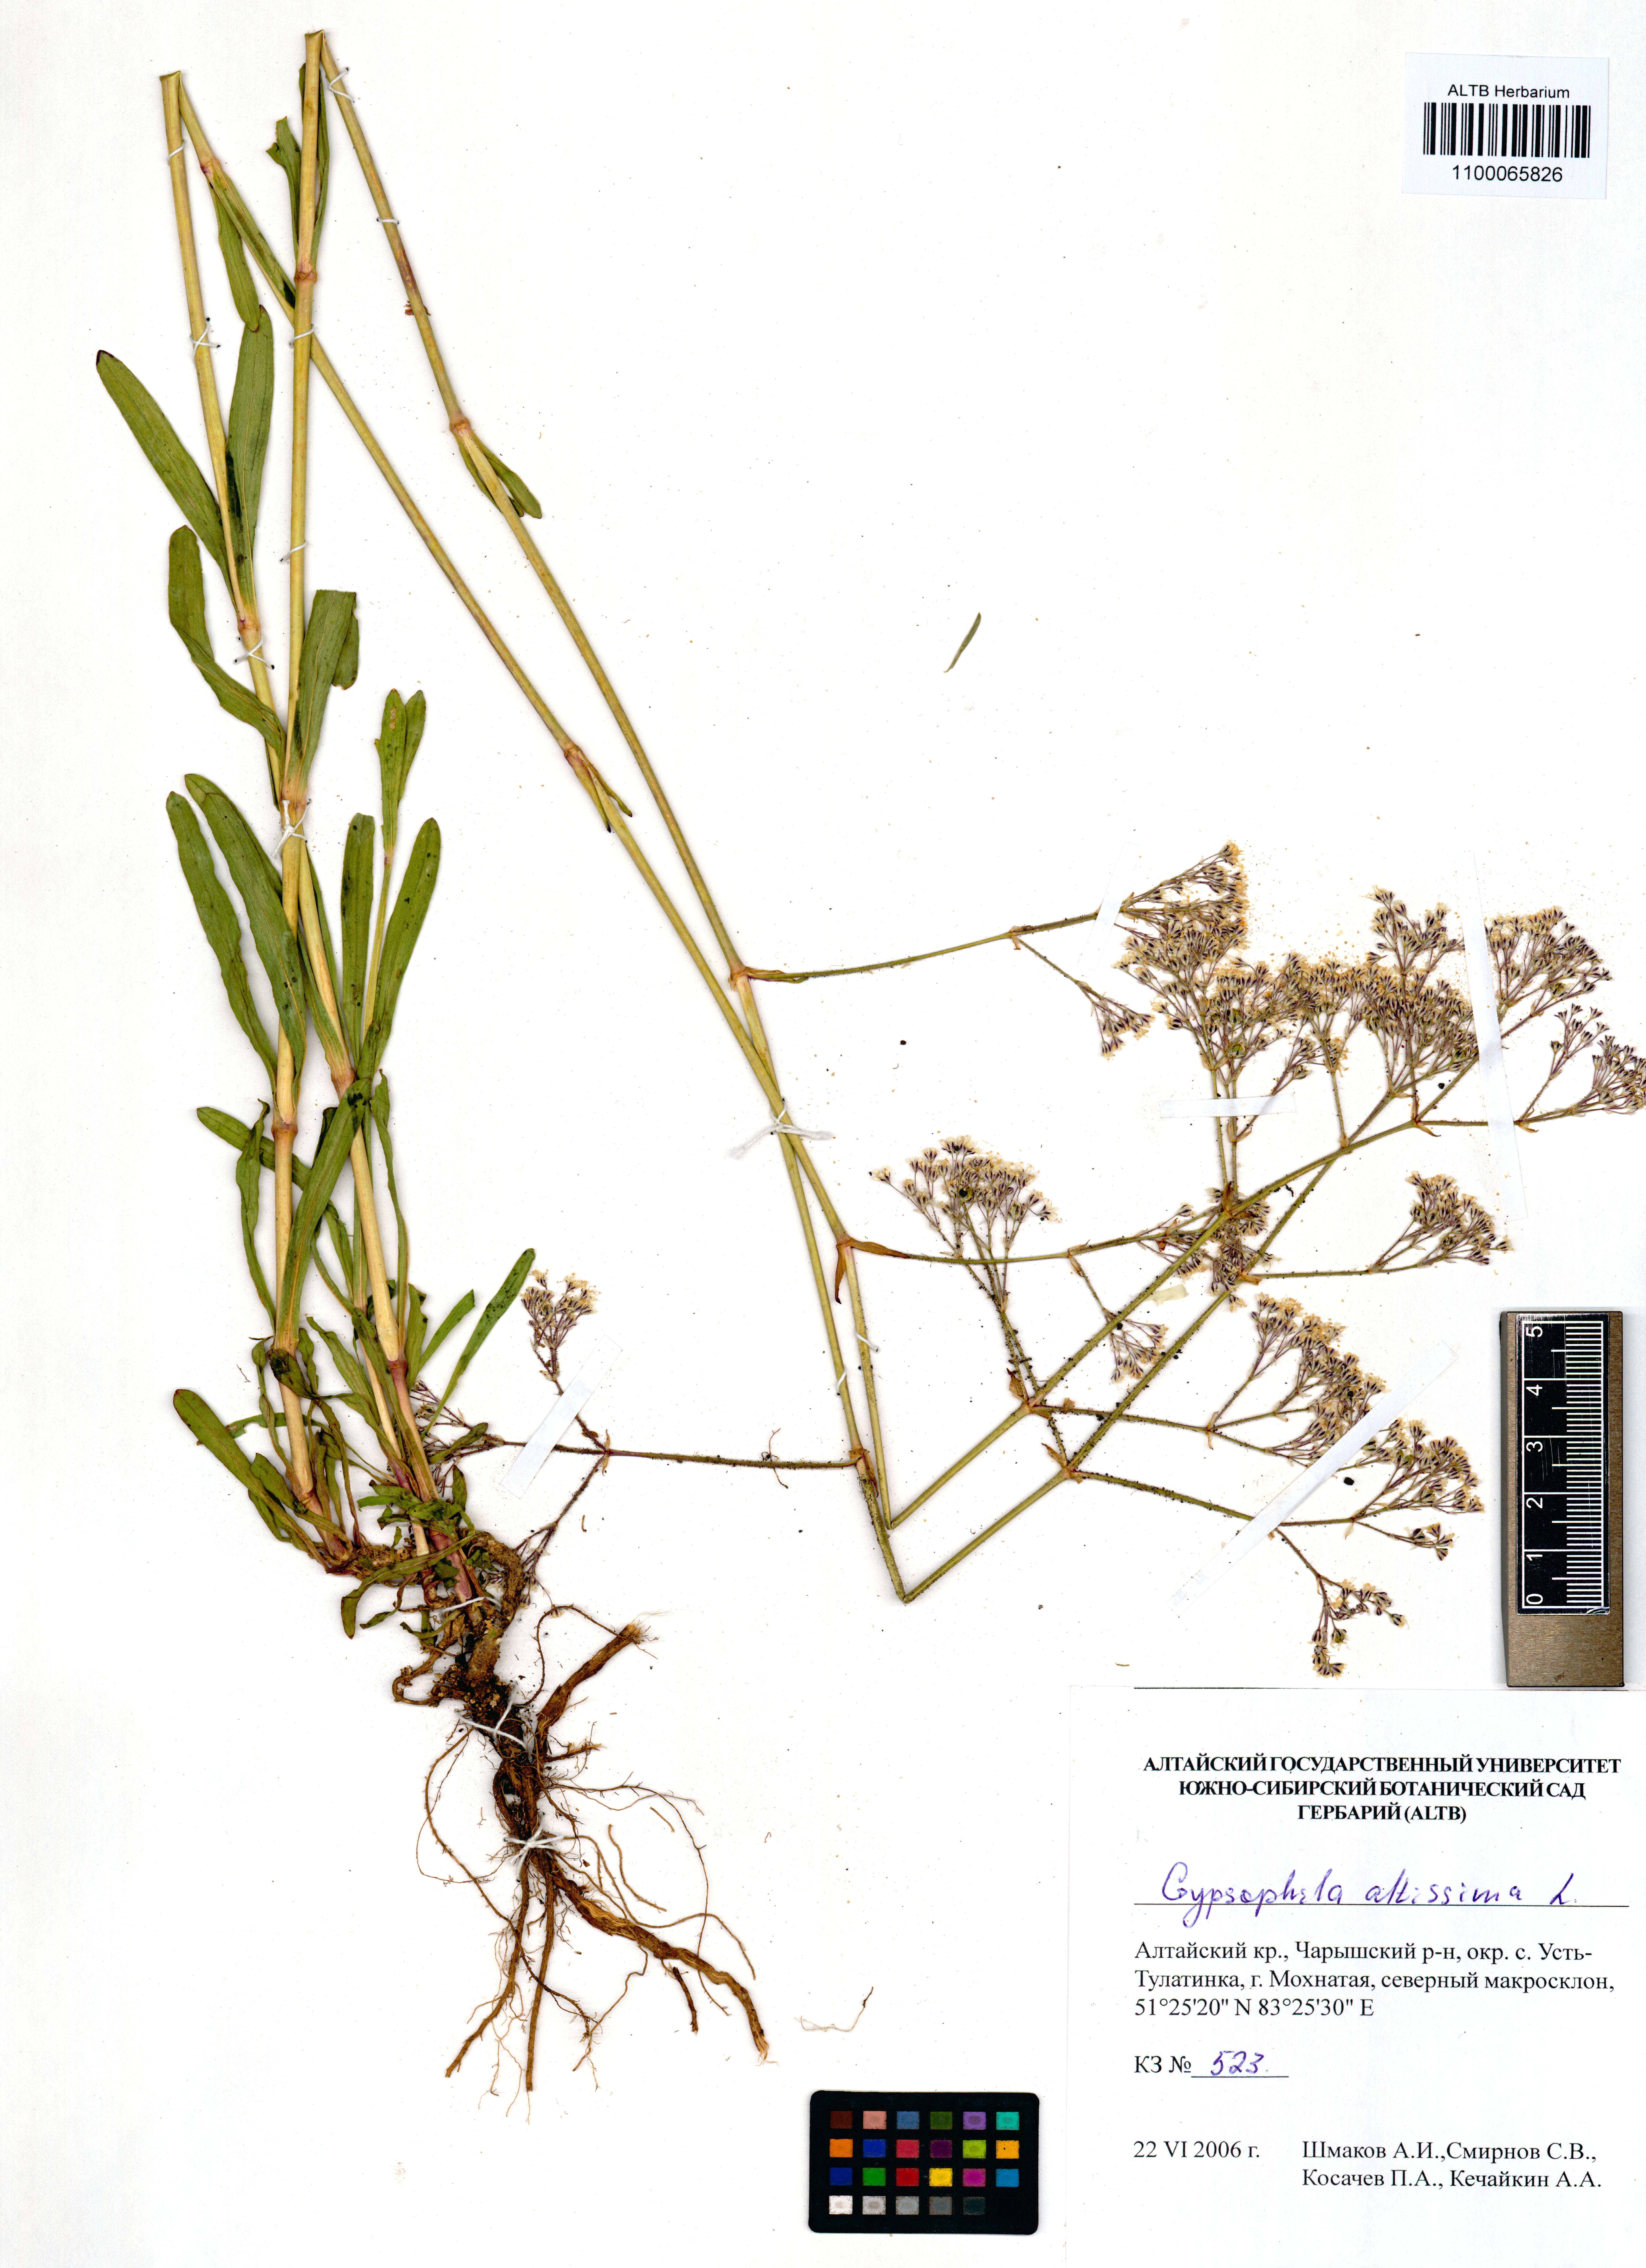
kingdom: Plantae
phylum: Tracheophyta
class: Magnoliopsida
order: Caryophyllales
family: Caryophyllaceae
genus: Gypsophila
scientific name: Gypsophila altissima
